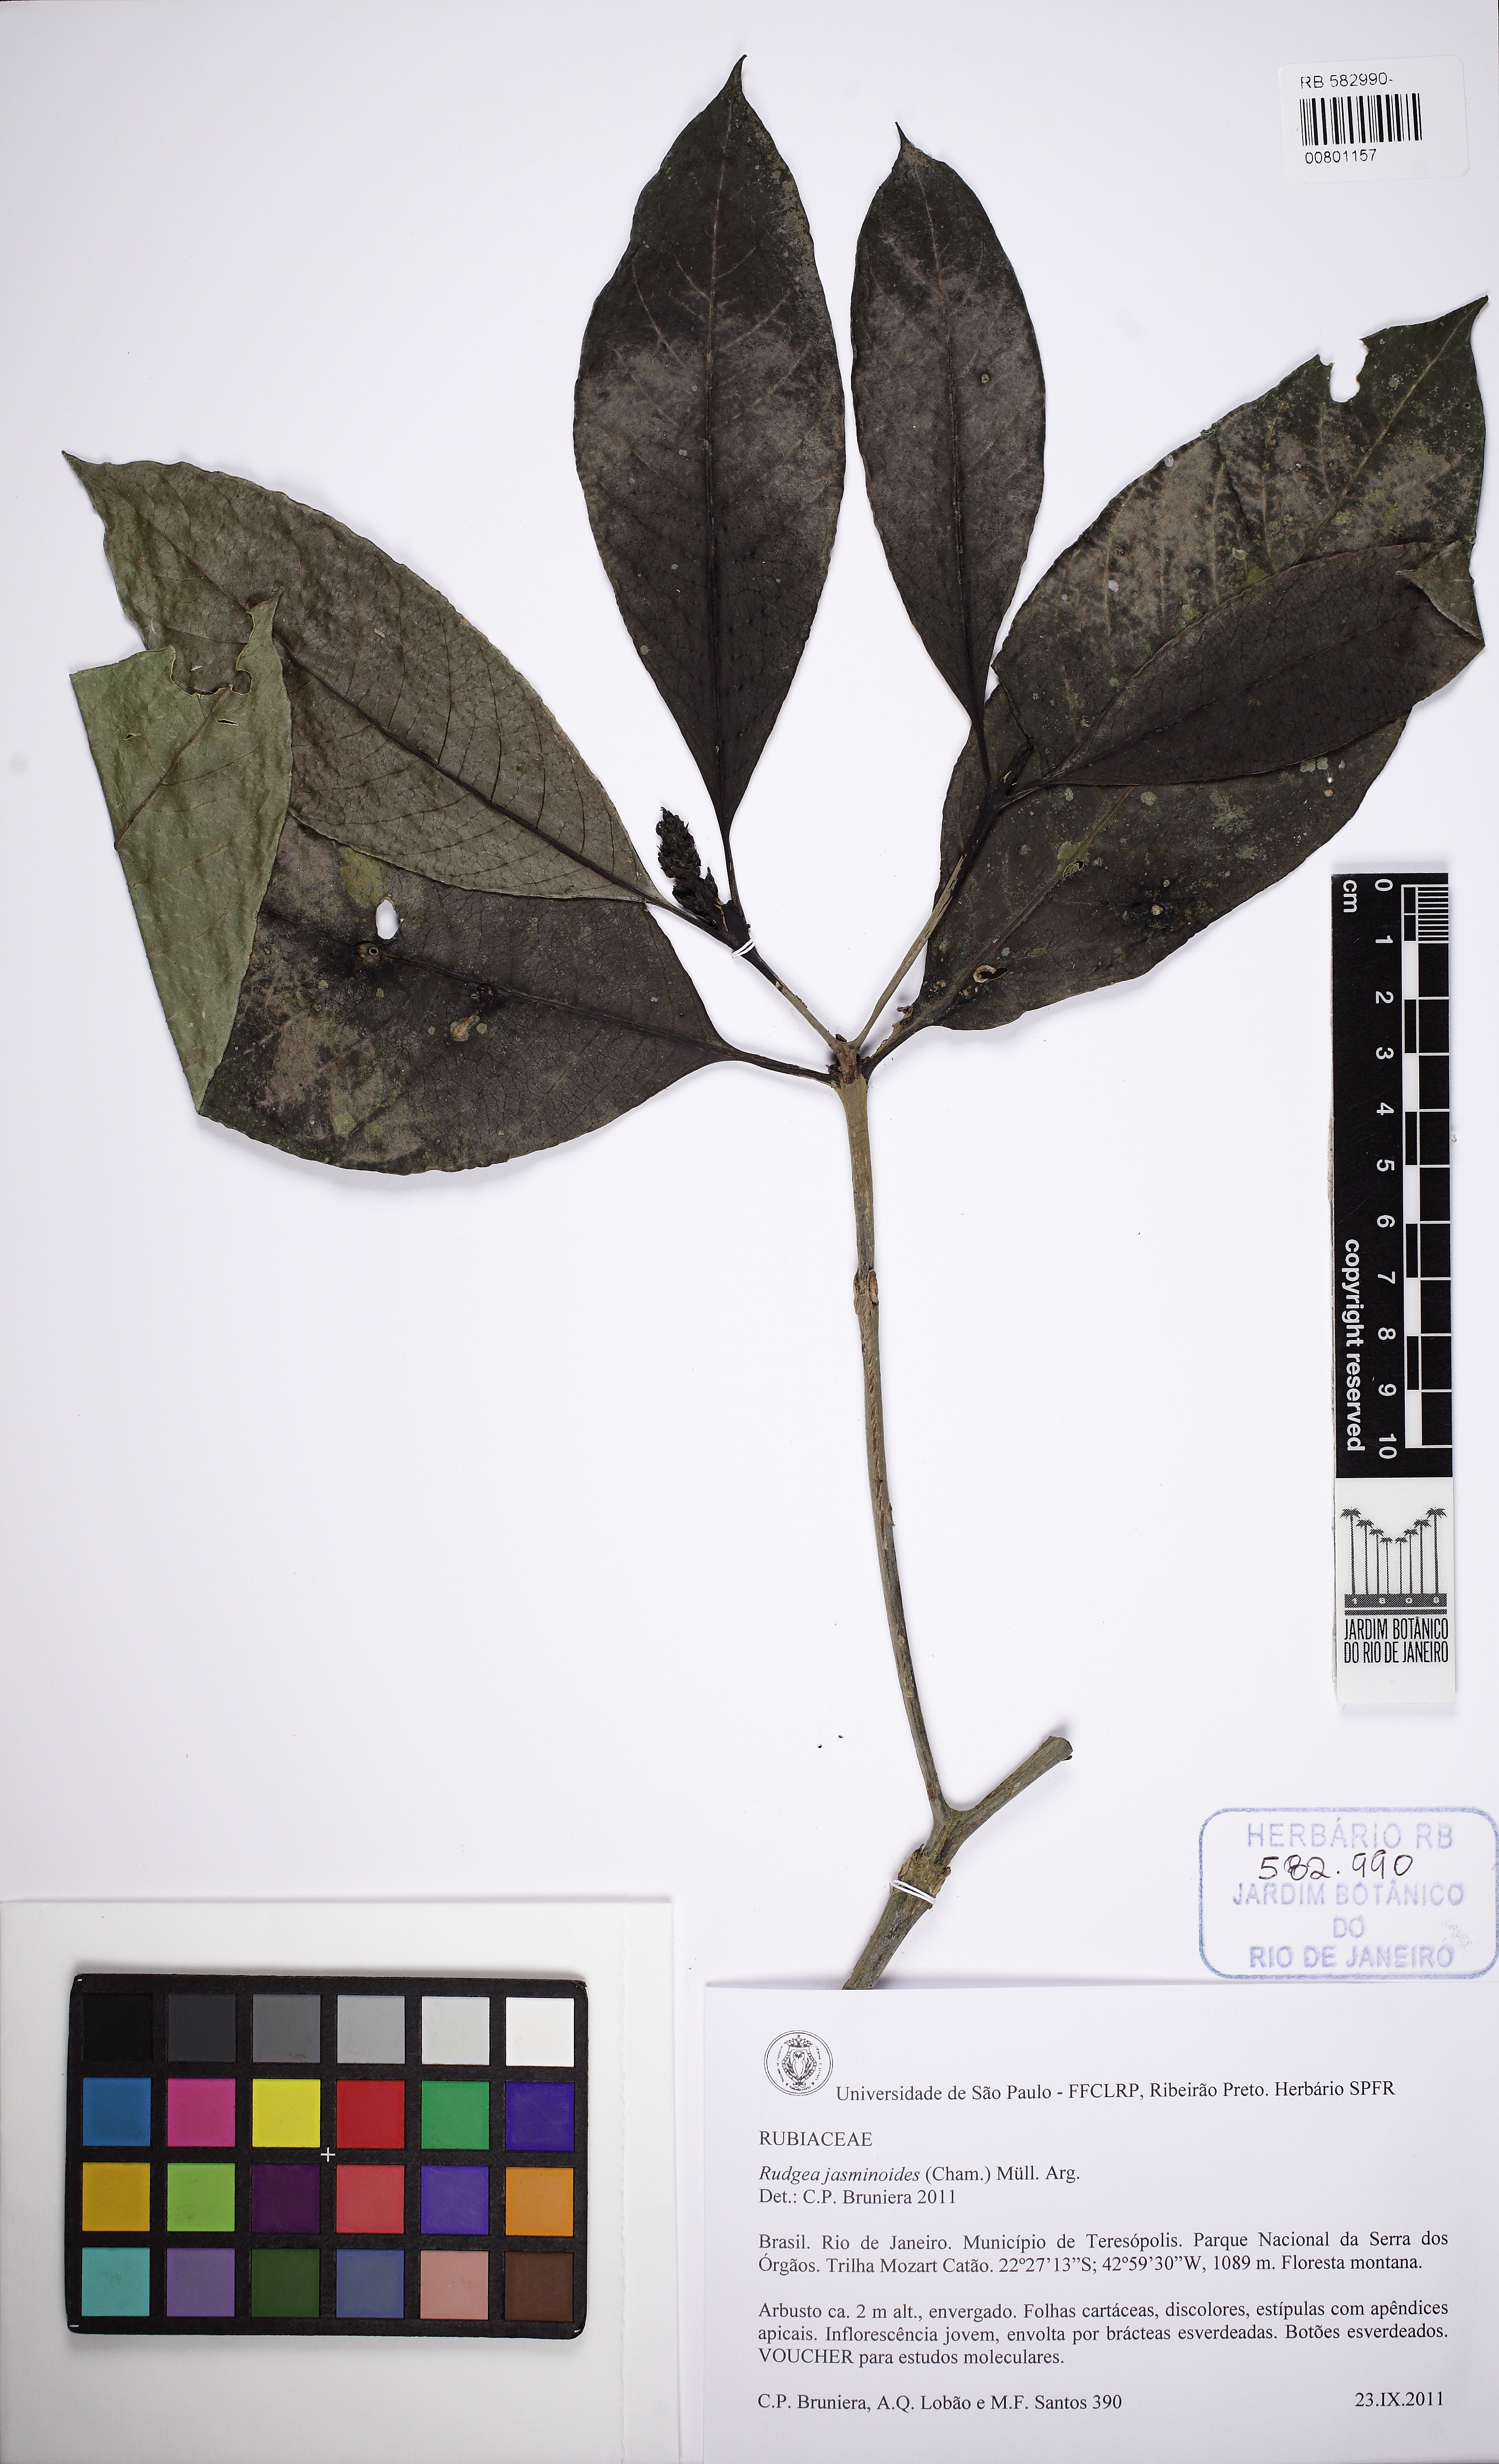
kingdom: Plantae
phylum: Tracheophyta
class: Magnoliopsida
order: Gentianales
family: Rubiaceae
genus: Rudgea
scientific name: Rudgea jasminoides
